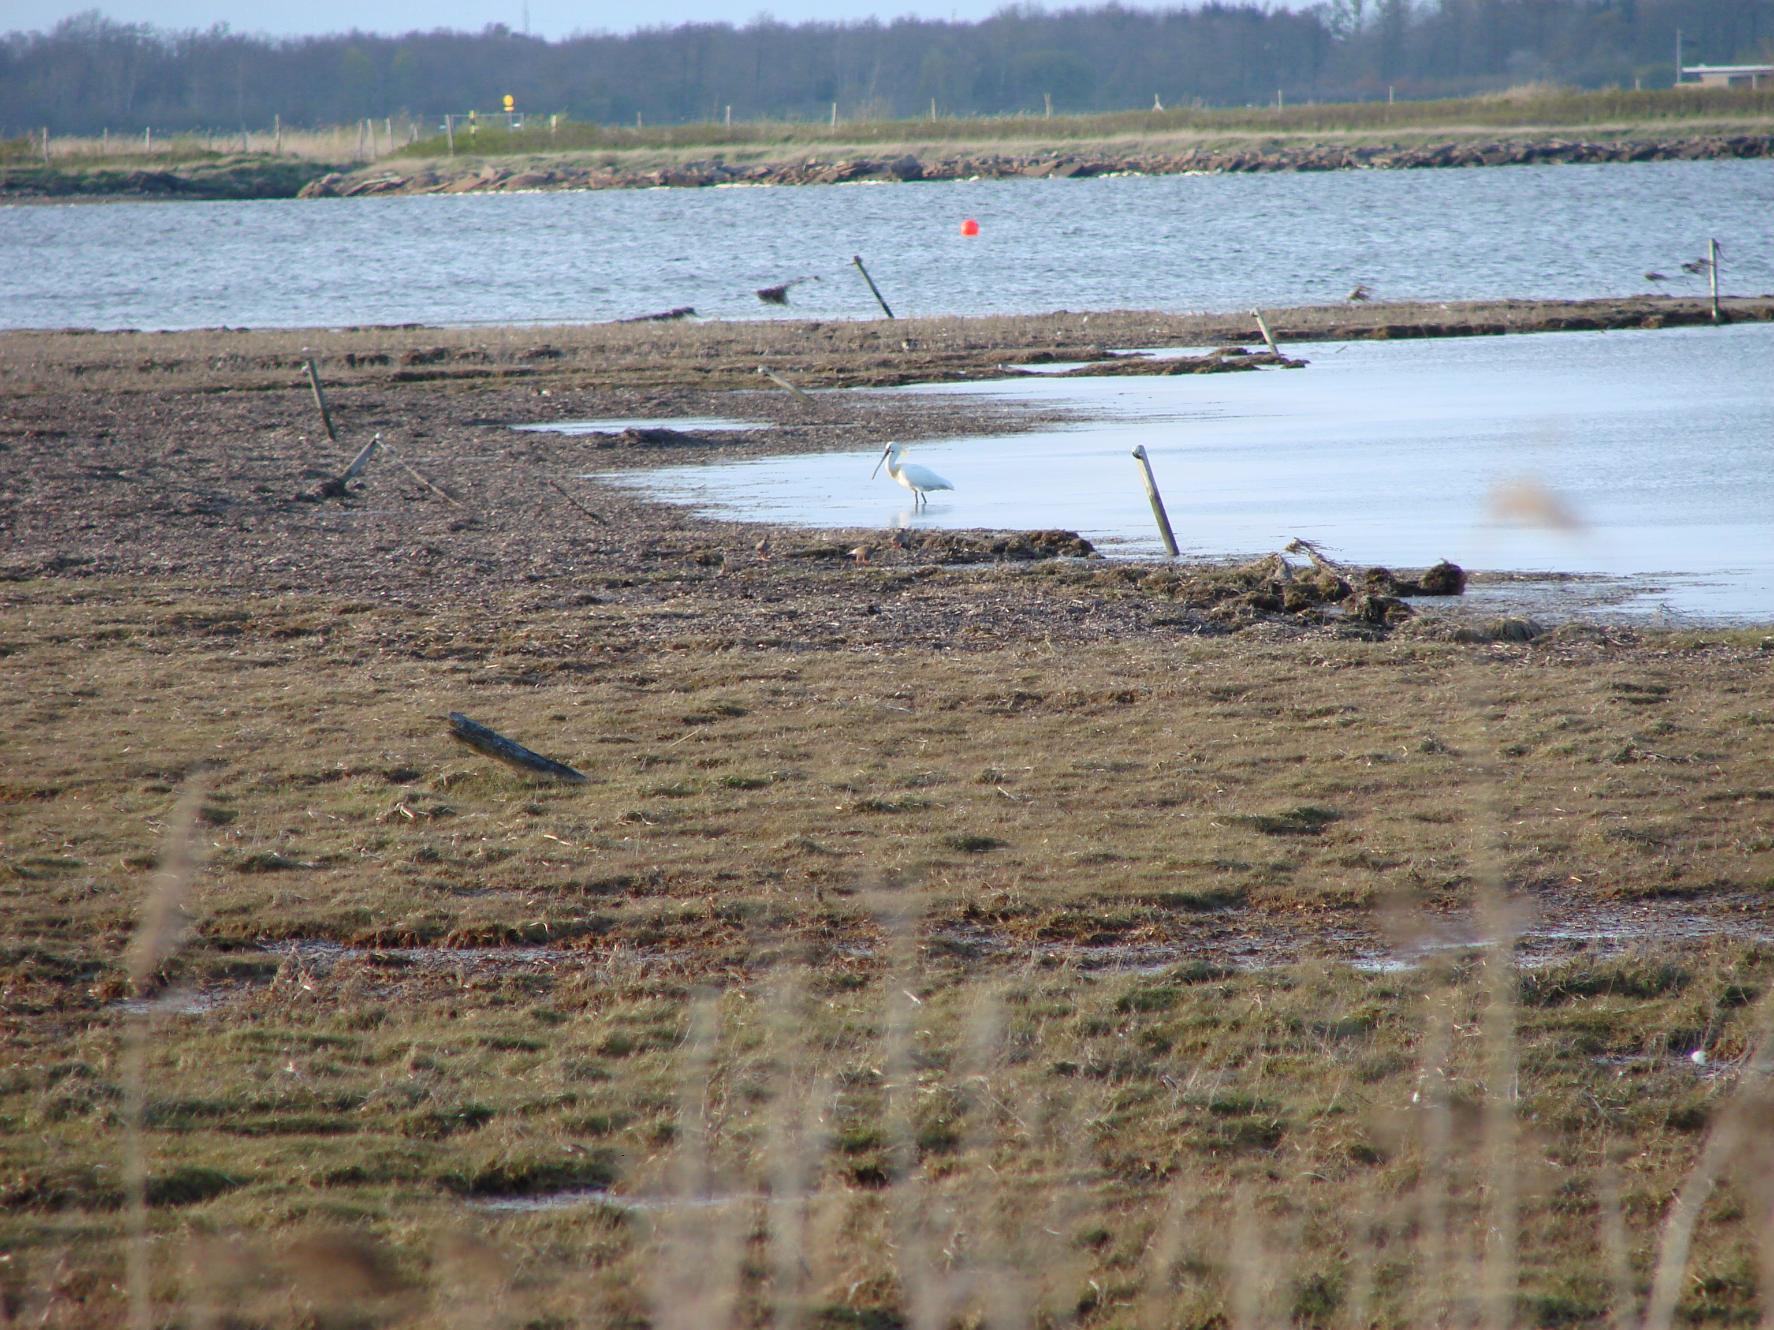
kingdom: Animalia
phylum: Chordata
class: Aves
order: Pelecaniformes
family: Threskiornithidae
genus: Platalea
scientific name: Platalea leucorodia
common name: Skestork
